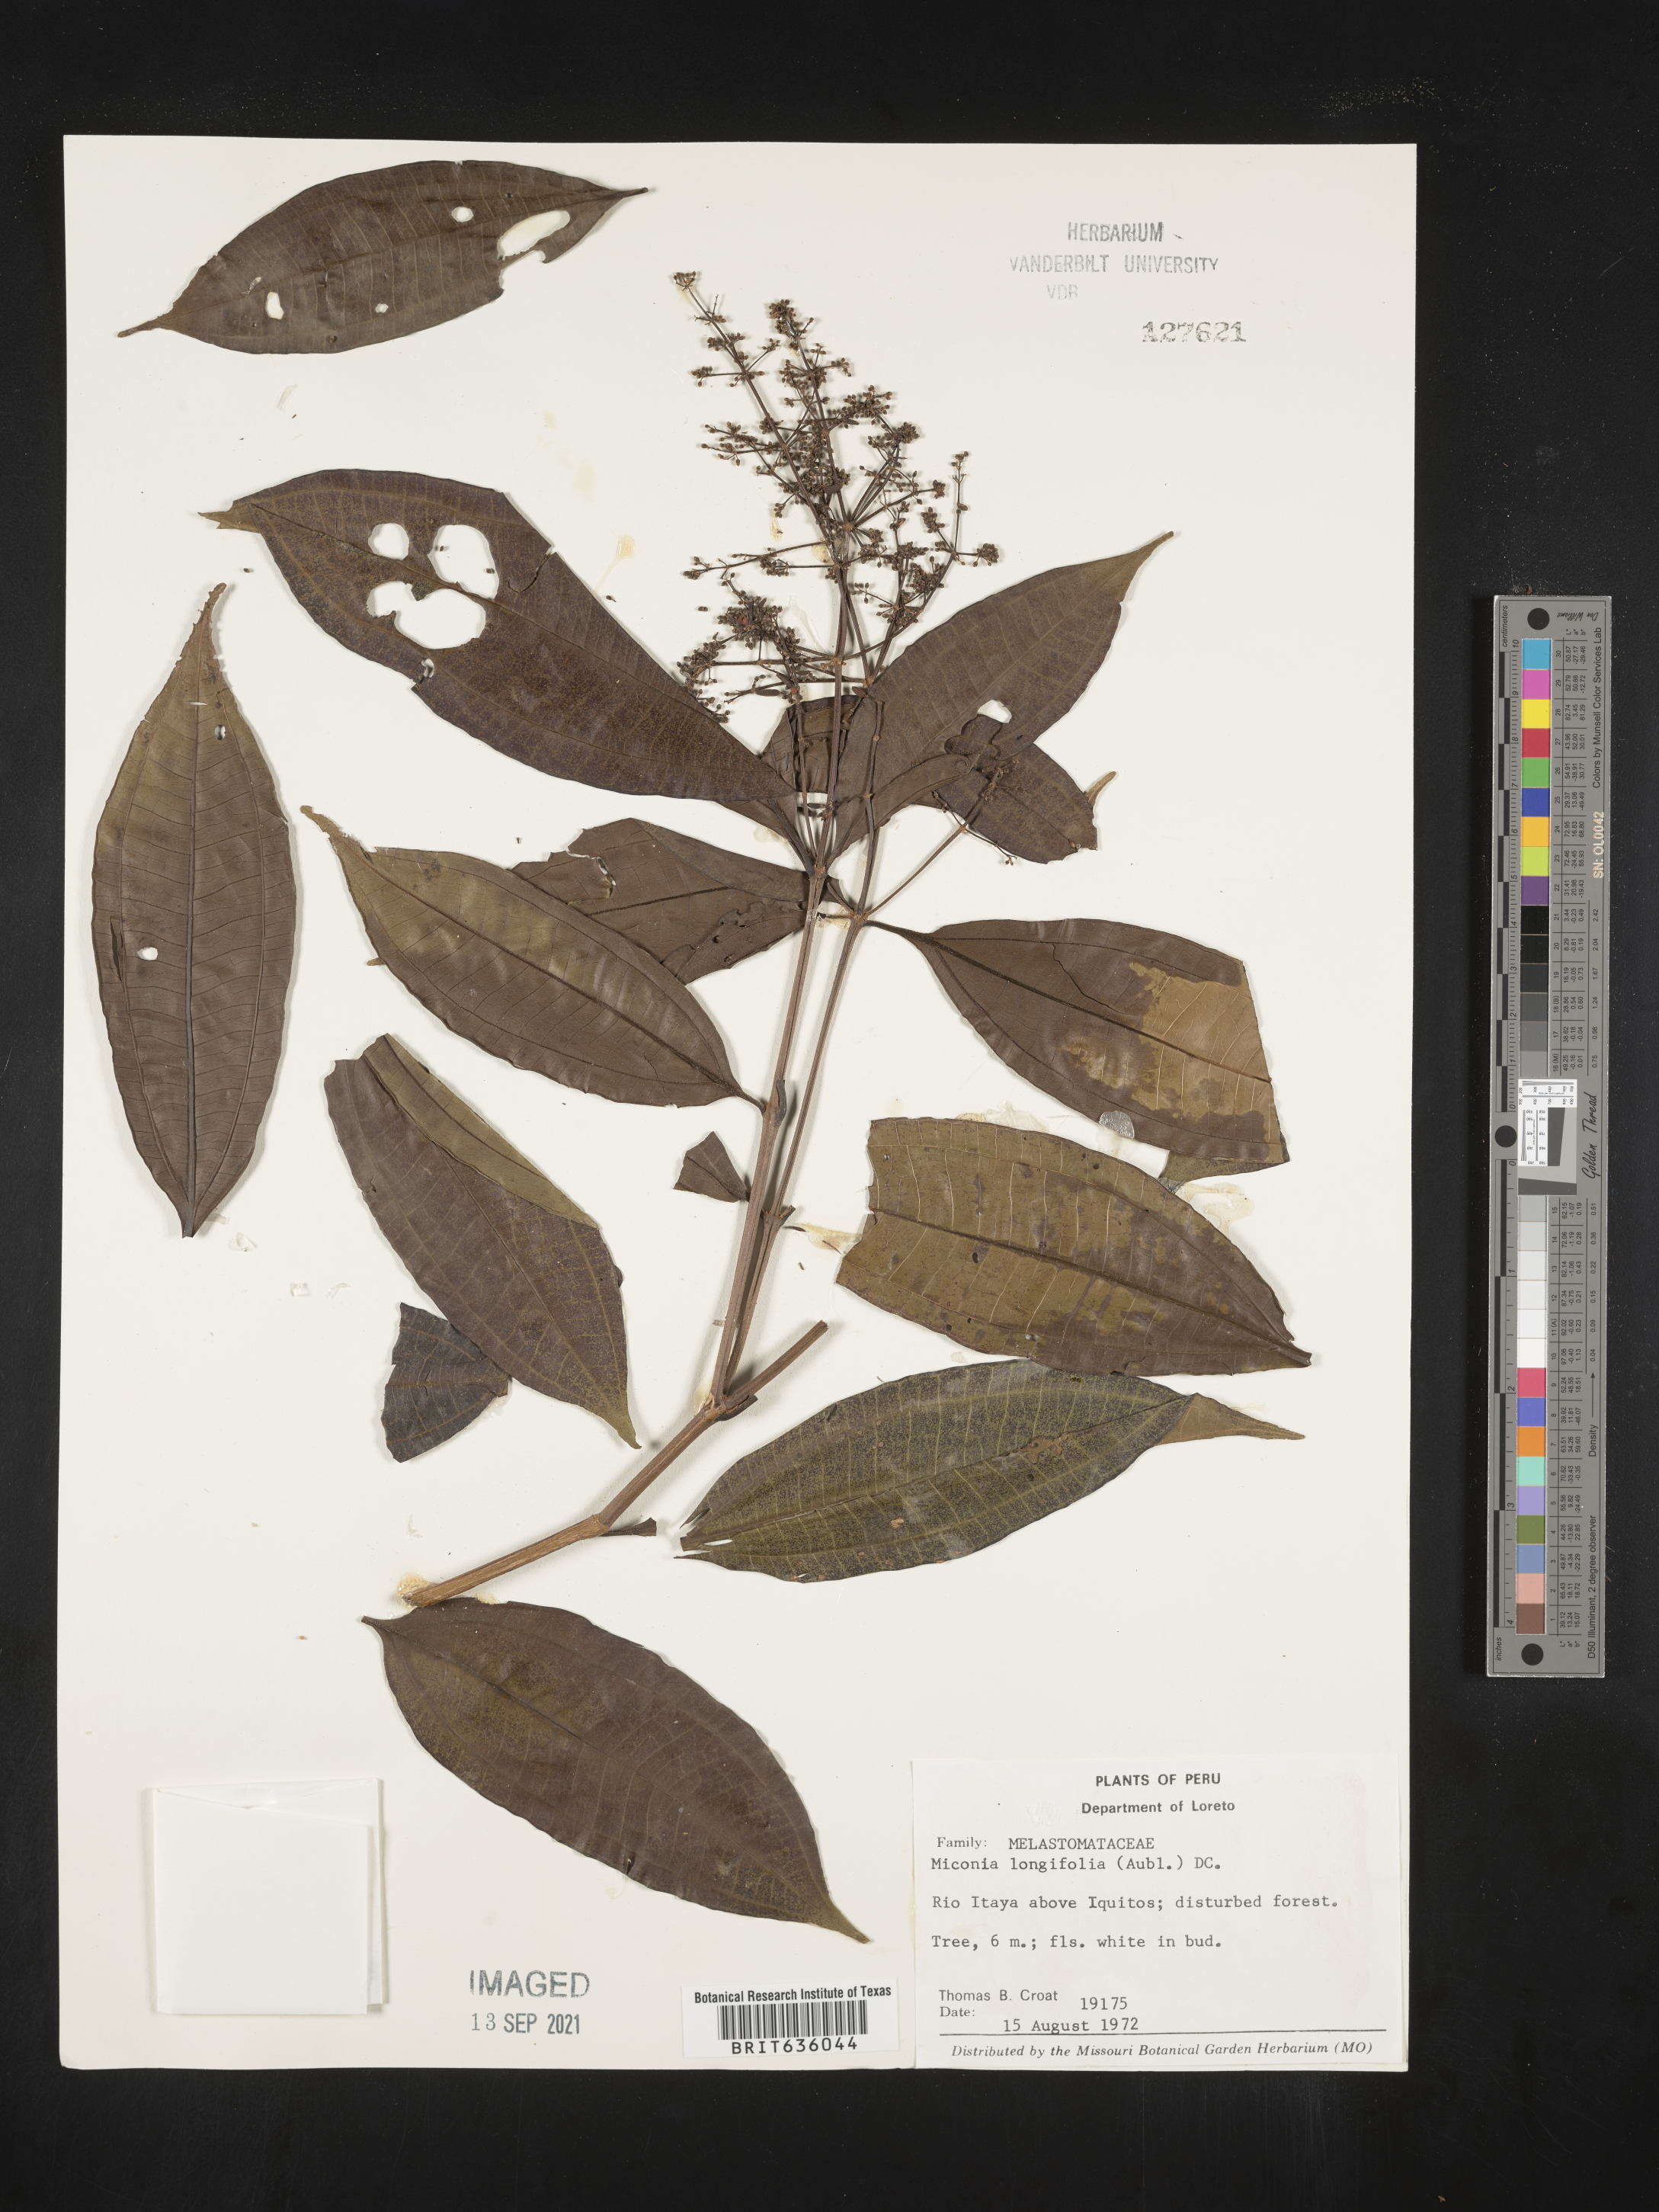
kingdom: Plantae
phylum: Tracheophyta
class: Magnoliopsida
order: Myrtales
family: Melastomataceae
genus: Miconia
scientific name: Miconia
